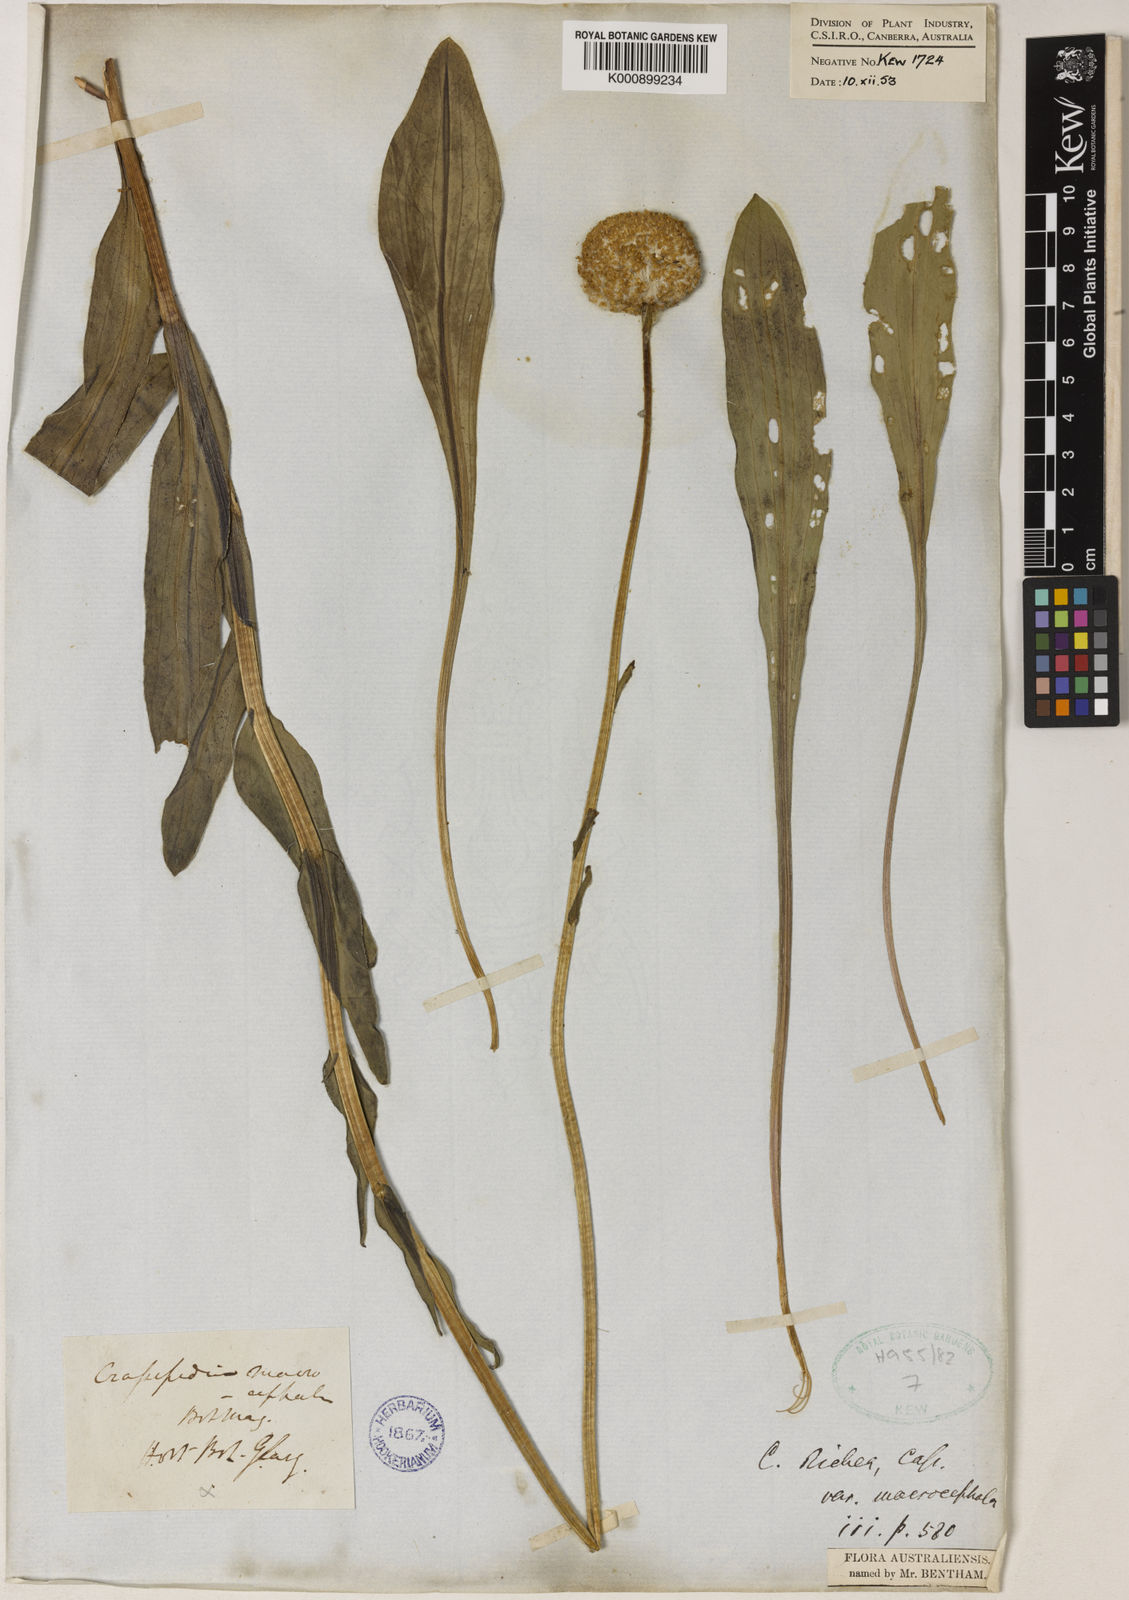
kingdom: Plantae
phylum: Tracheophyta
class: Magnoliopsida
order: Asterales
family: Asteraceae
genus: Craspedia
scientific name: Craspedia glauca
